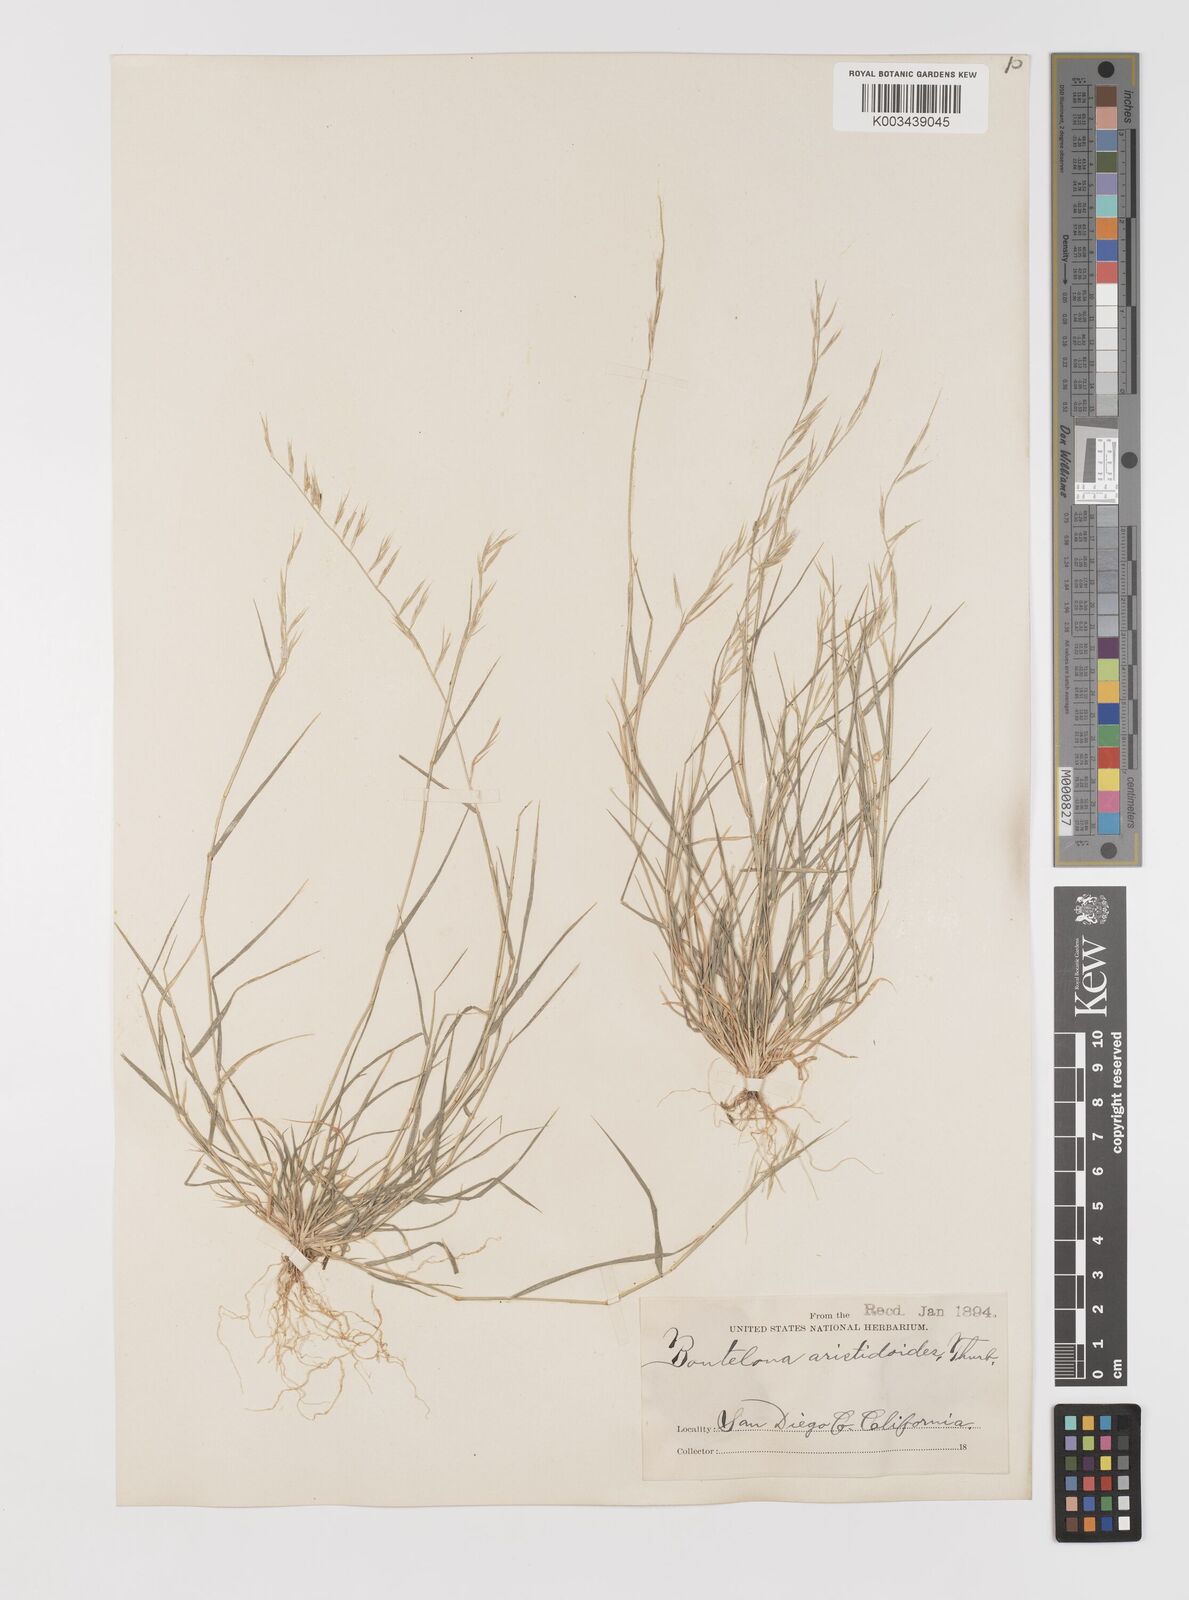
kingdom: Plantae
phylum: Tracheophyta
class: Liliopsida
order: Poales
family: Poaceae
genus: Bouteloua
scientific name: Bouteloua aristidoides
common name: Needle grama
